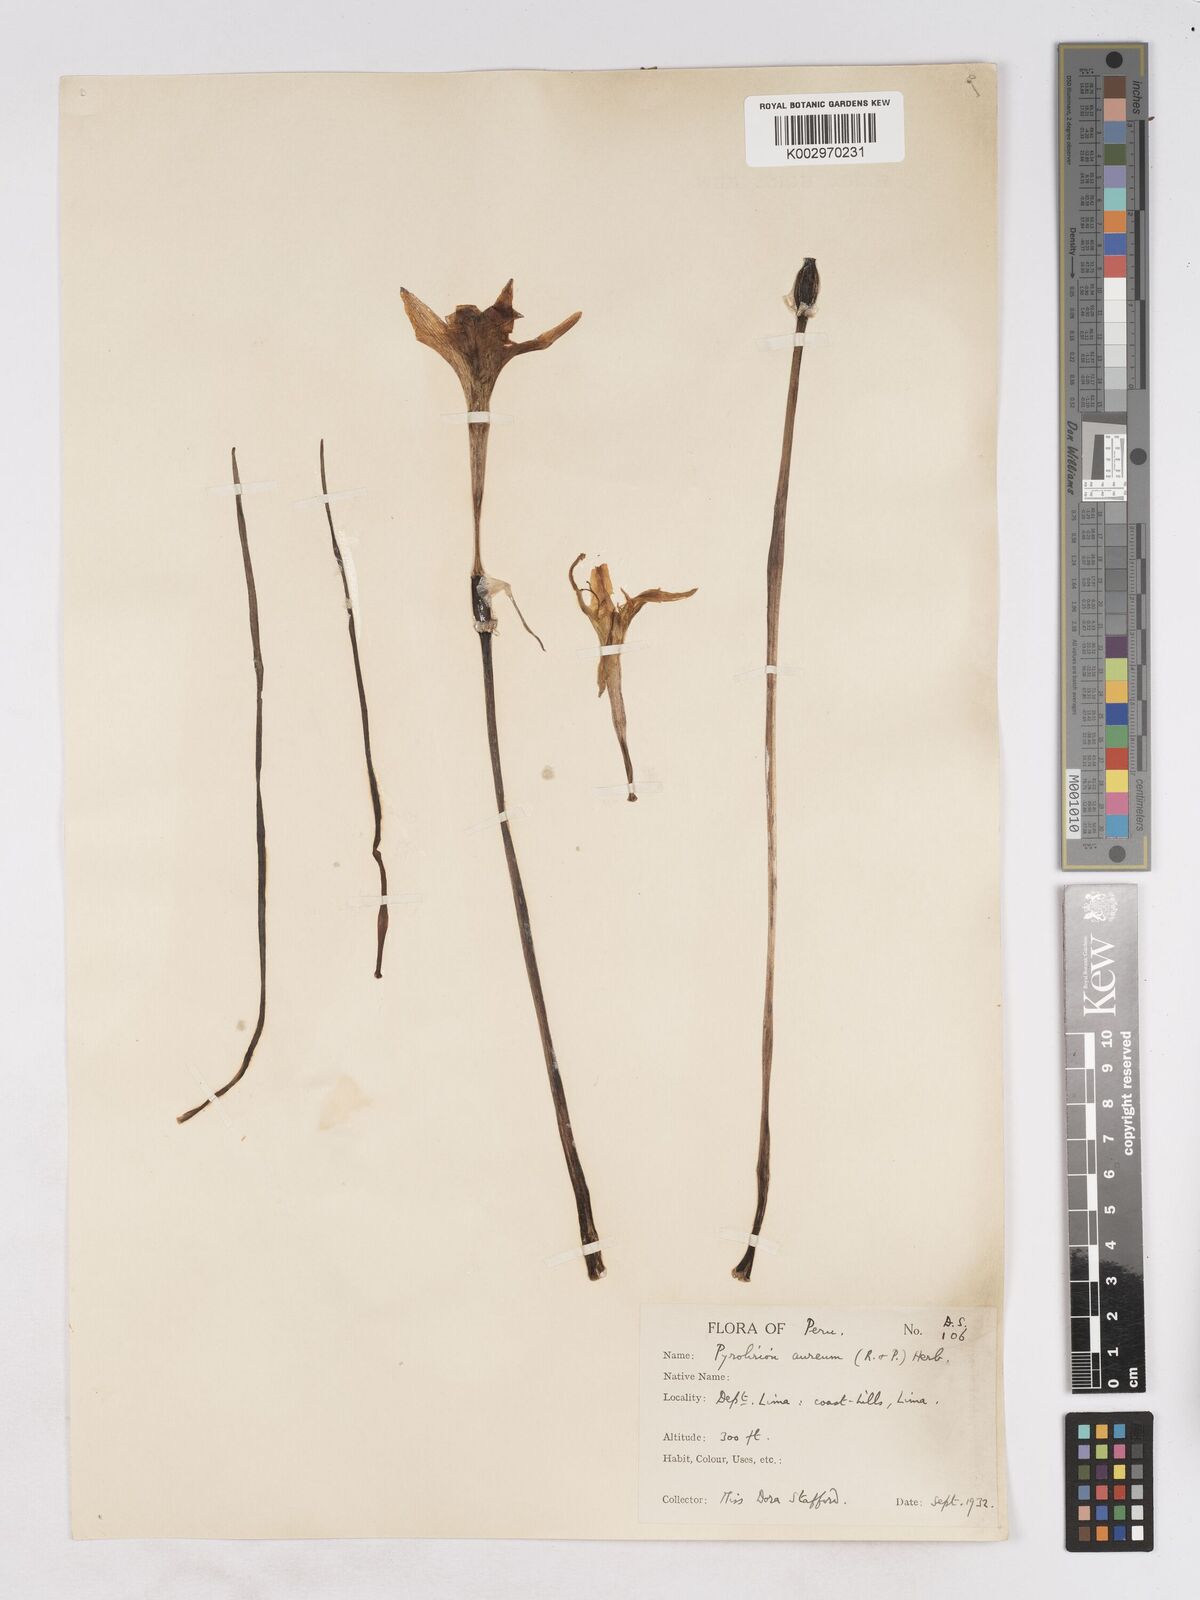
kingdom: Plantae
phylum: Tracheophyta
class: Liliopsida
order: Asparagales
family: Amaryllidaceae
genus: Pyrolirion
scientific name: Pyrolirion tubiflorum
